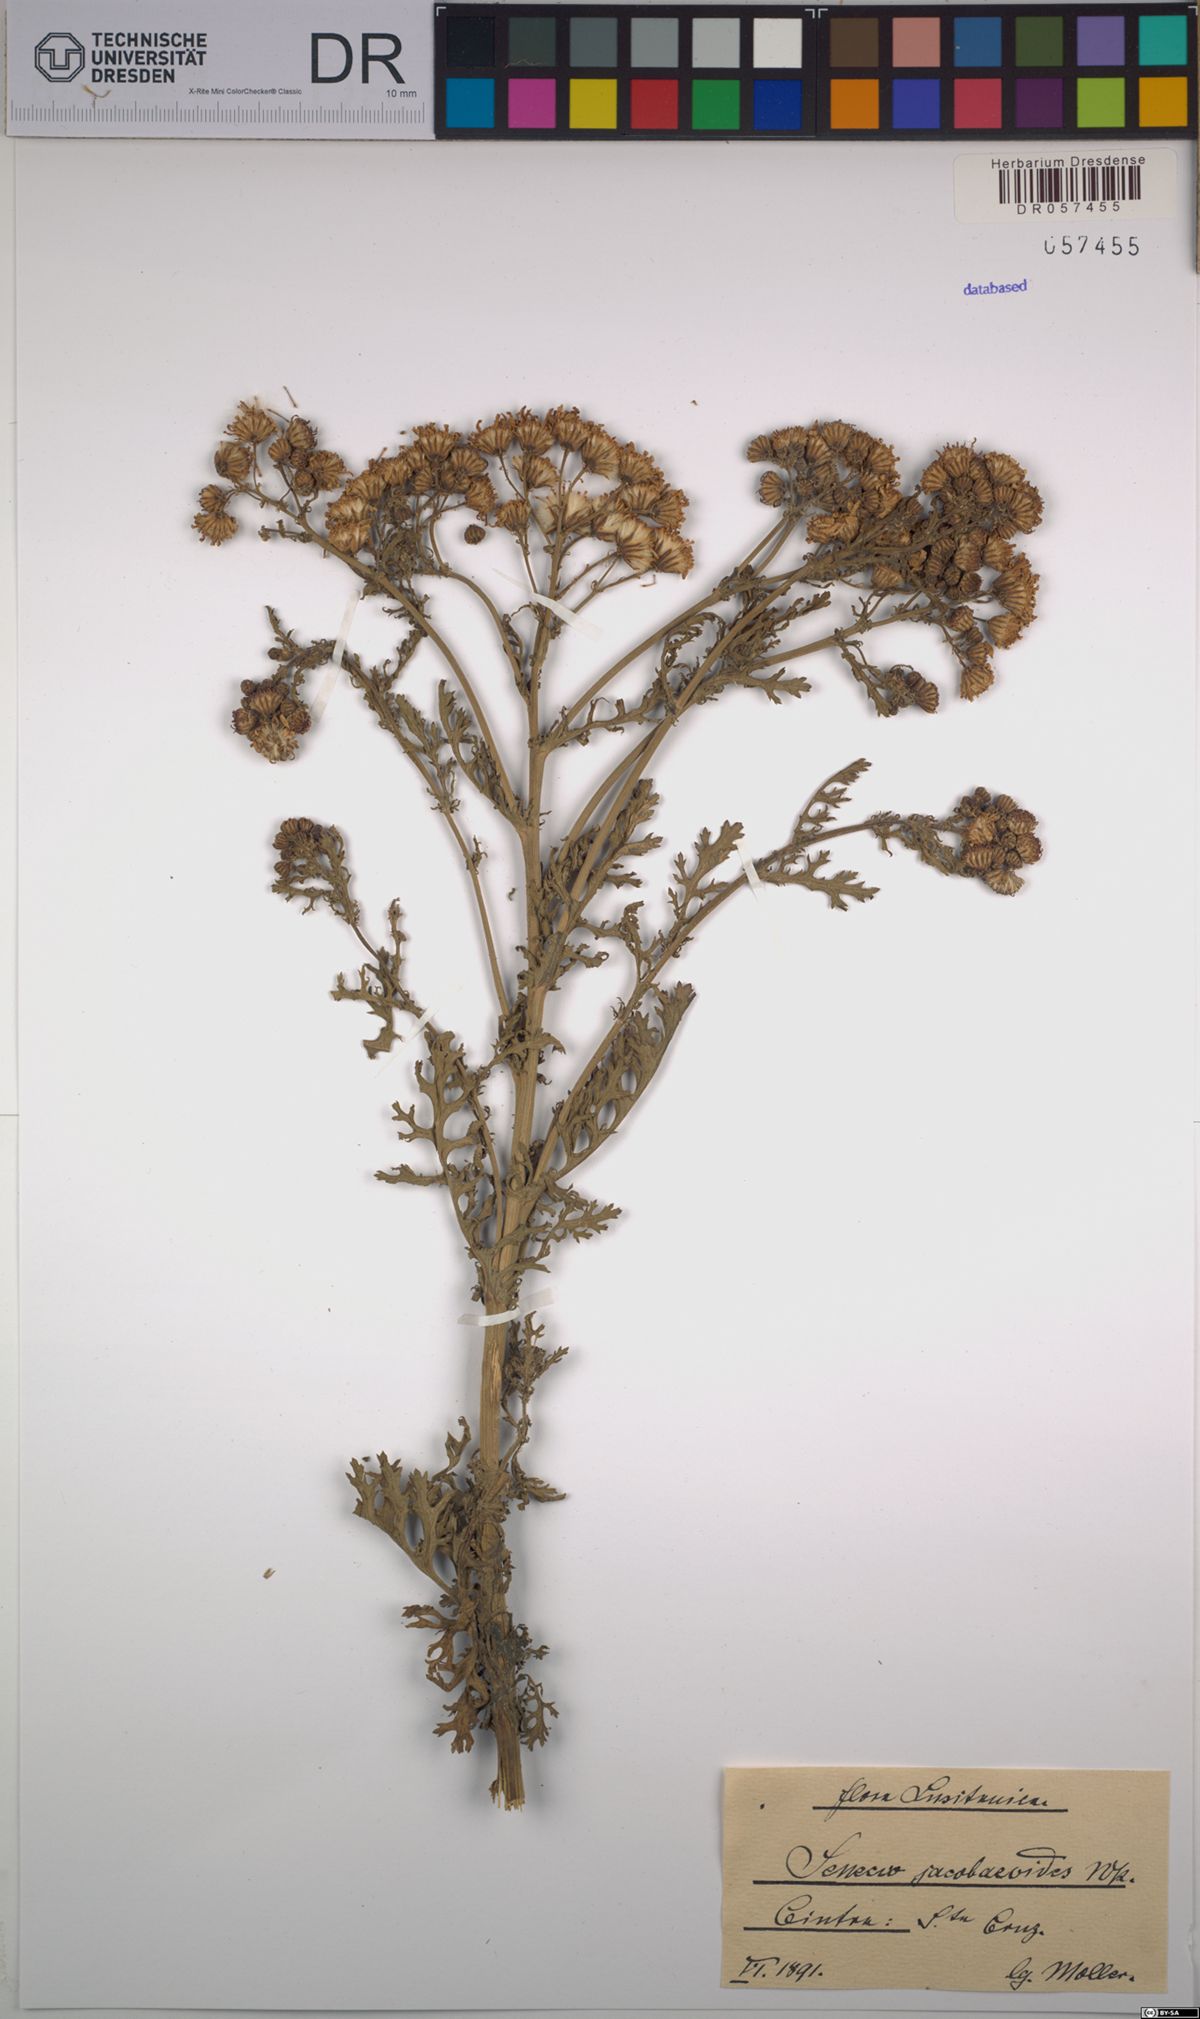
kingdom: Plantae
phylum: Tracheophyta
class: Magnoliopsida
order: Asterales
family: Asteraceae
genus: Jacobaea
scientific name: Jacobaea vulgaris
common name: Stinking willie
